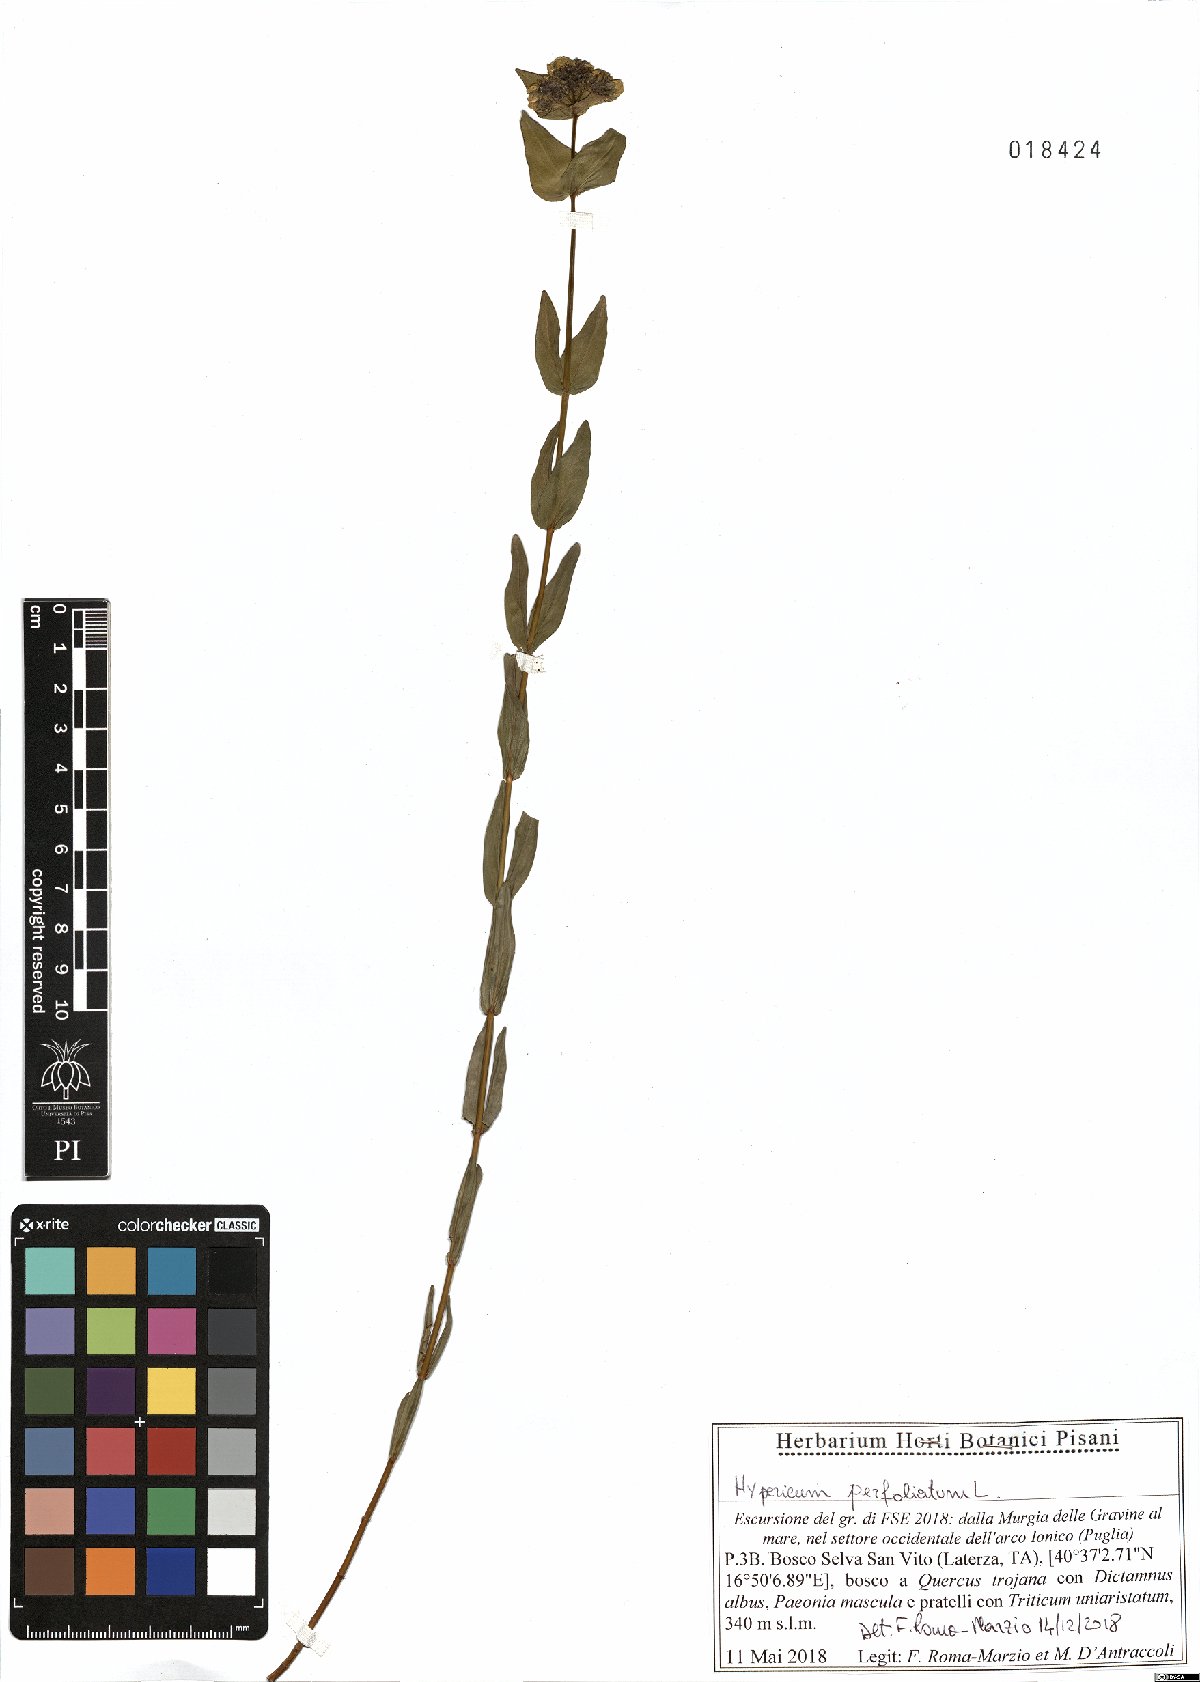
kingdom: Plantae
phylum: Tracheophyta
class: Magnoliopsida
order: Malpighiales
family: Hypericaceae
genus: Hypericum
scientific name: Hypericum perfoliatum
